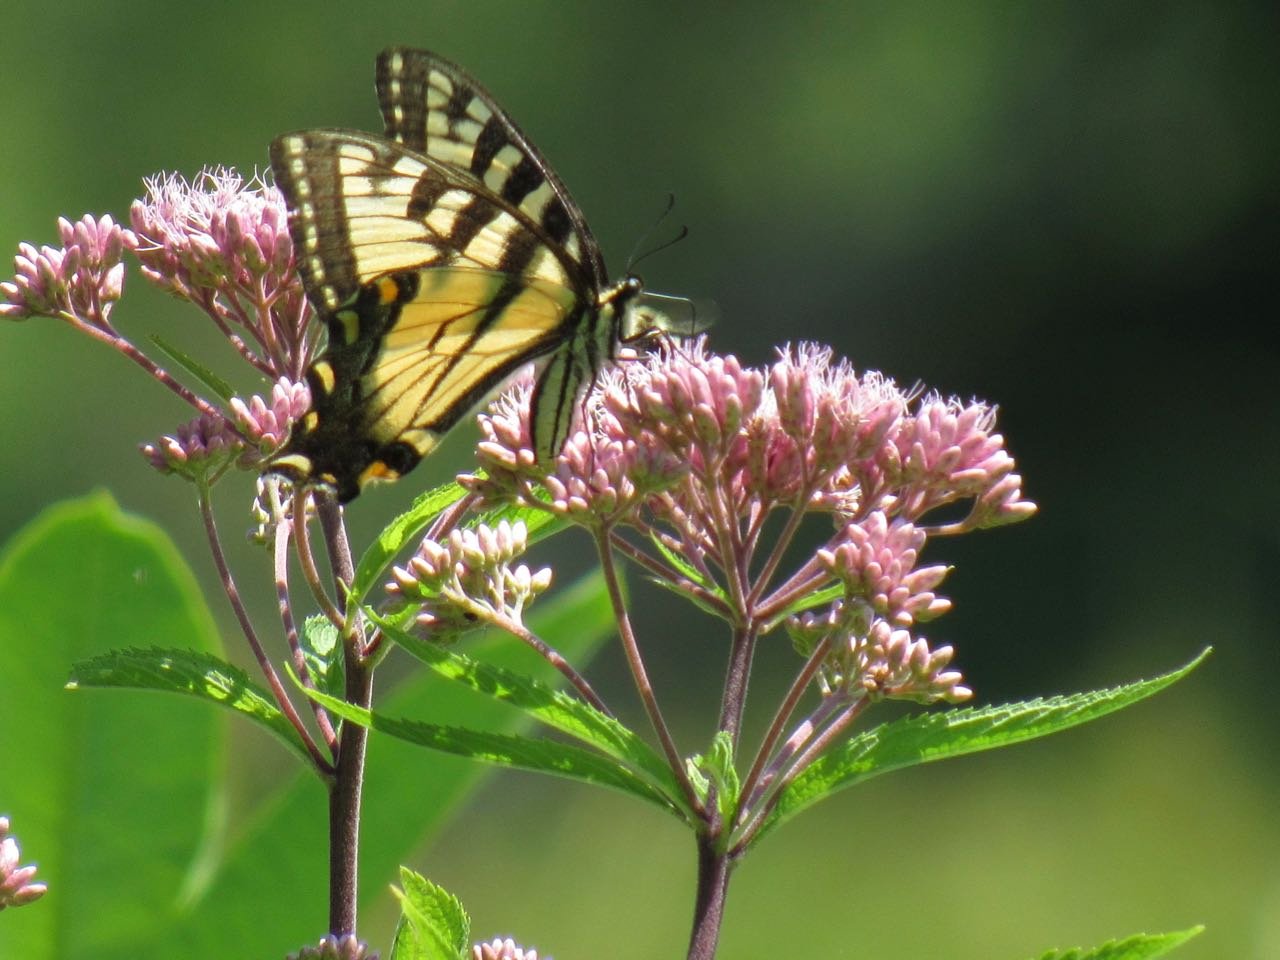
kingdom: Animalia
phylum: Arthropoda
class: Insecta
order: Lepidoptera
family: Papilionidae
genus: Pterourus
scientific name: Pterourus
